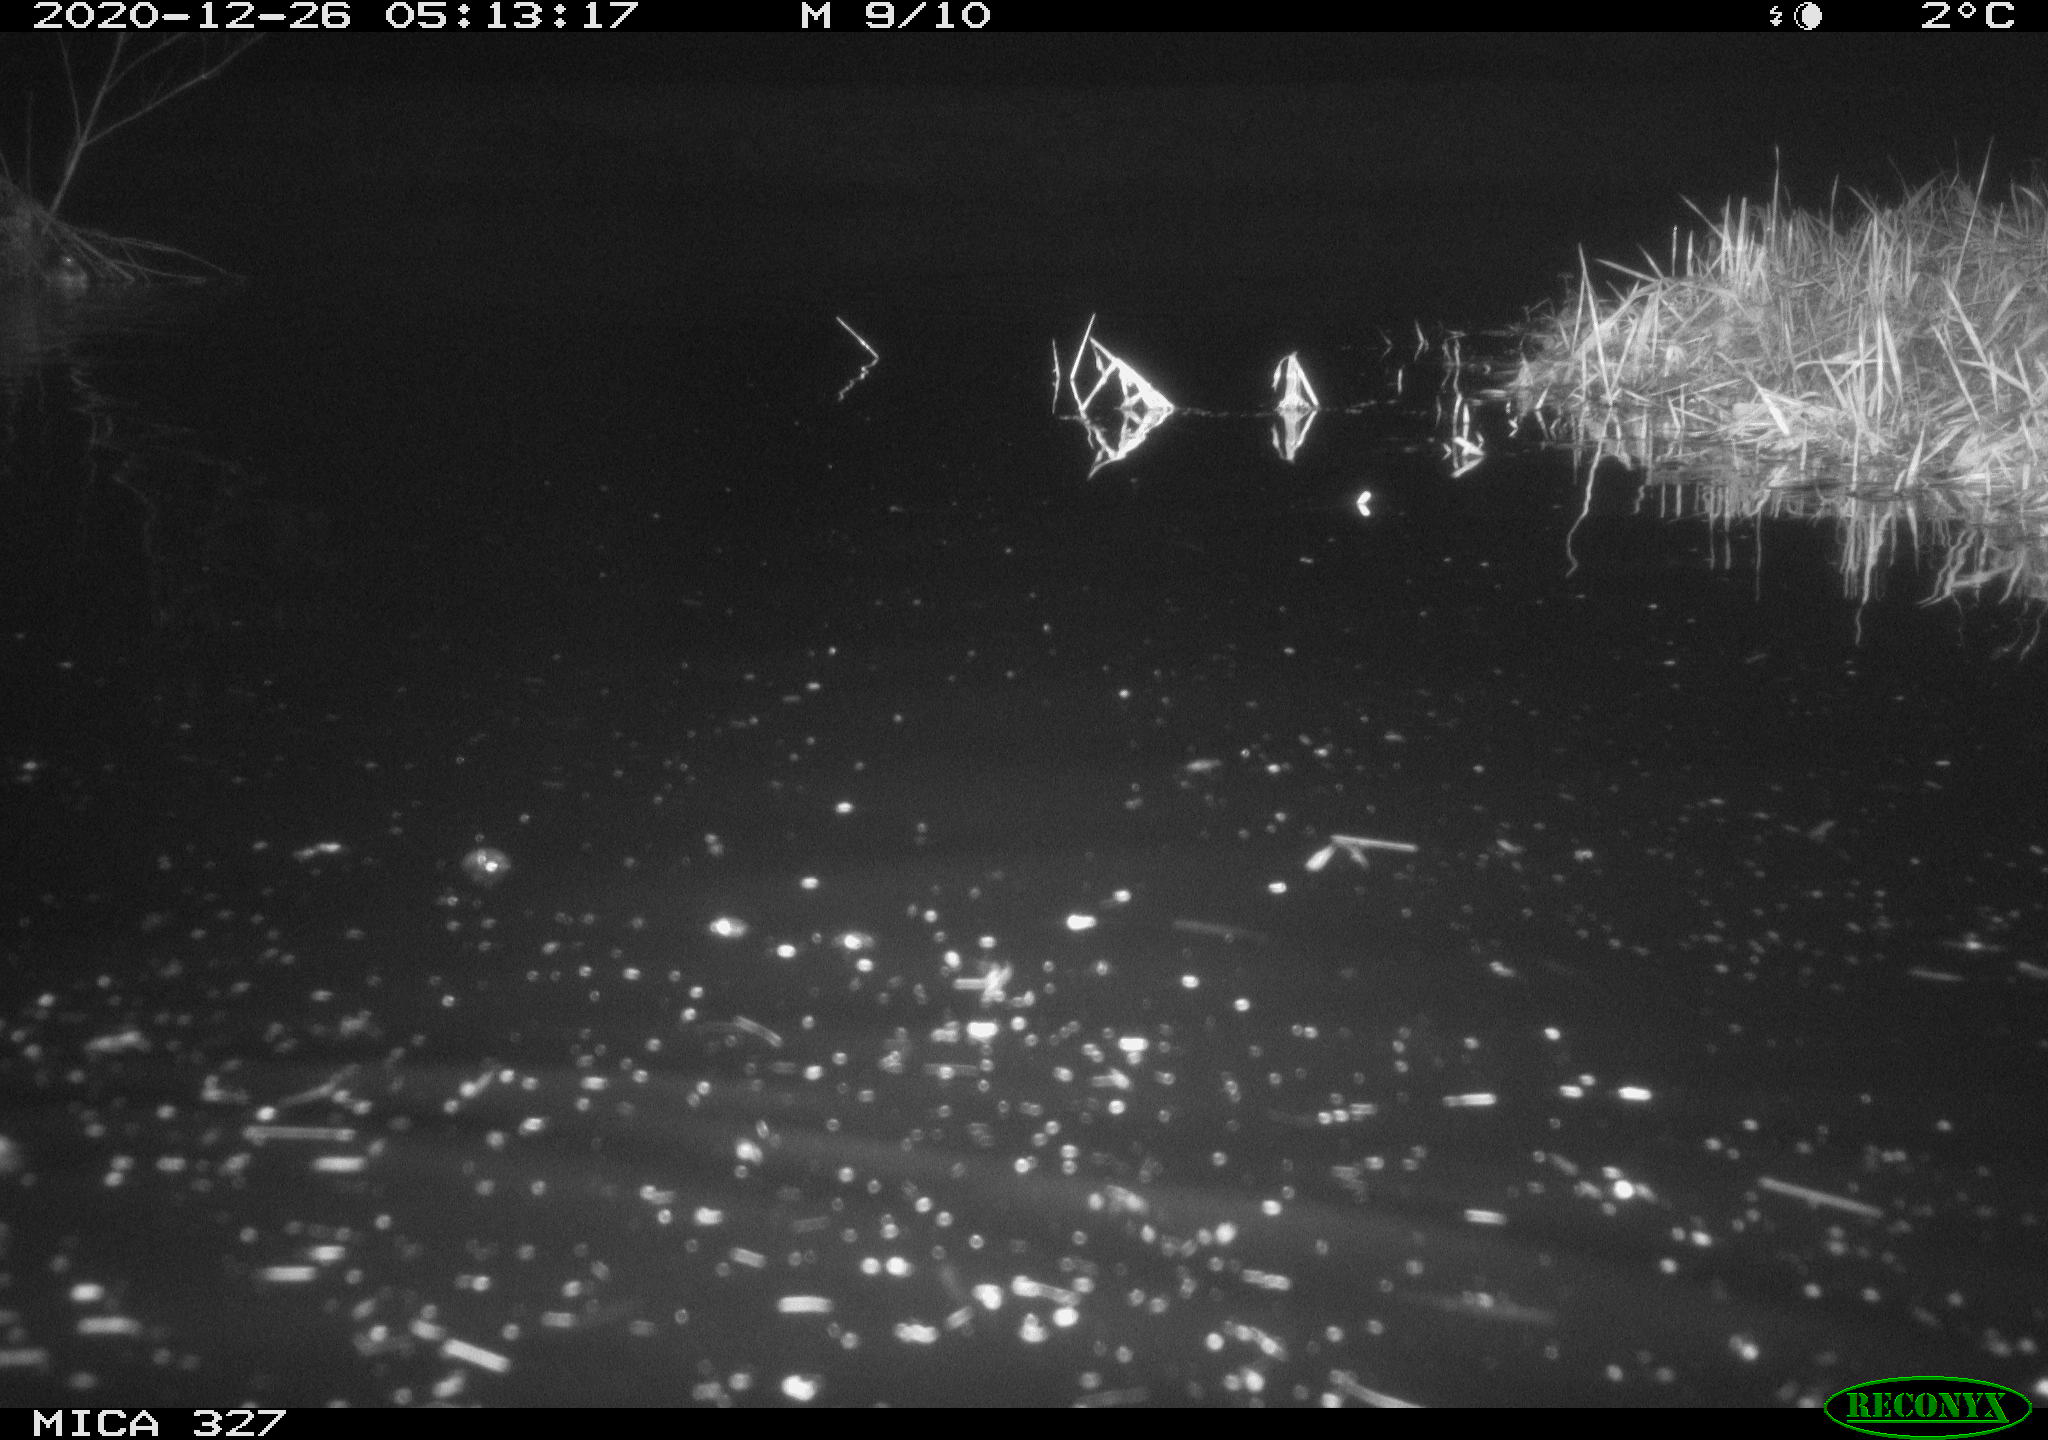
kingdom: Animalia
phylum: Chordata
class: Mammalia
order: Rodentia
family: Cricetidae
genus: Ondatra
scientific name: Ondatra zibethicus
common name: Muskrat
